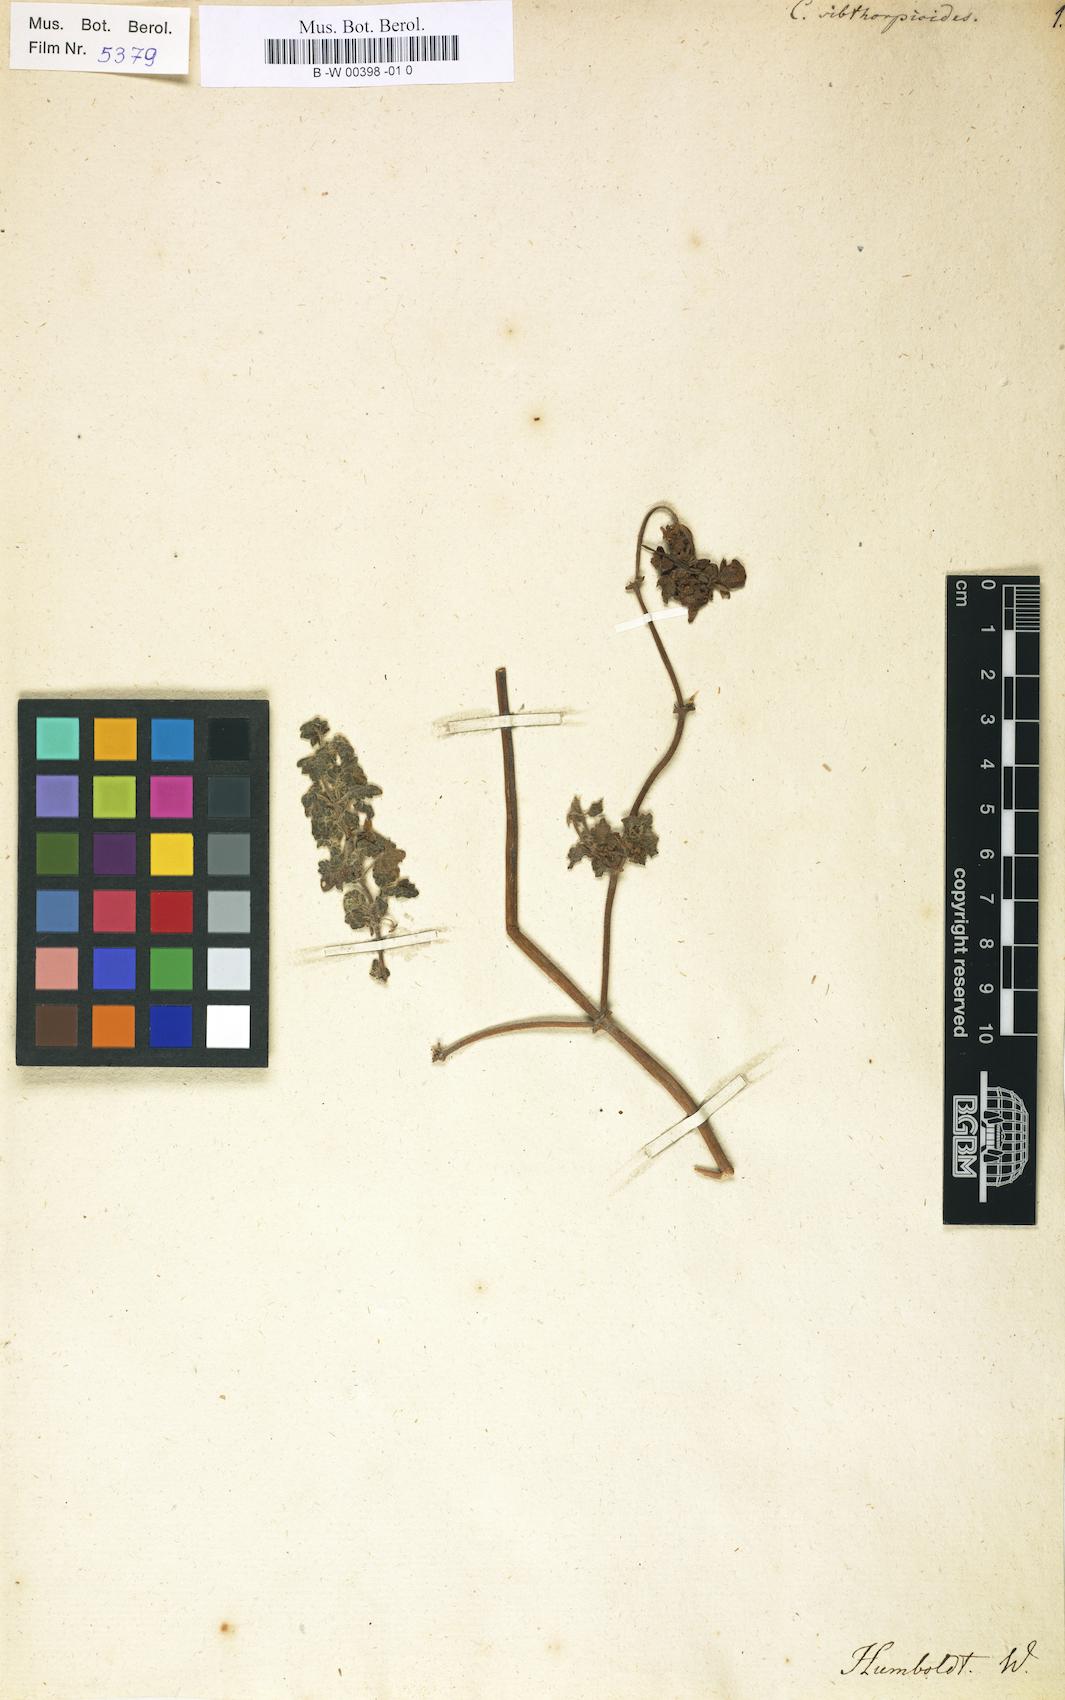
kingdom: Plantae
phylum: Tracheophyta
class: Magnoliopsida
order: Lamiales
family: Calceolariaceae
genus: Calceolaria
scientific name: Calceolaria sibthorpioides
